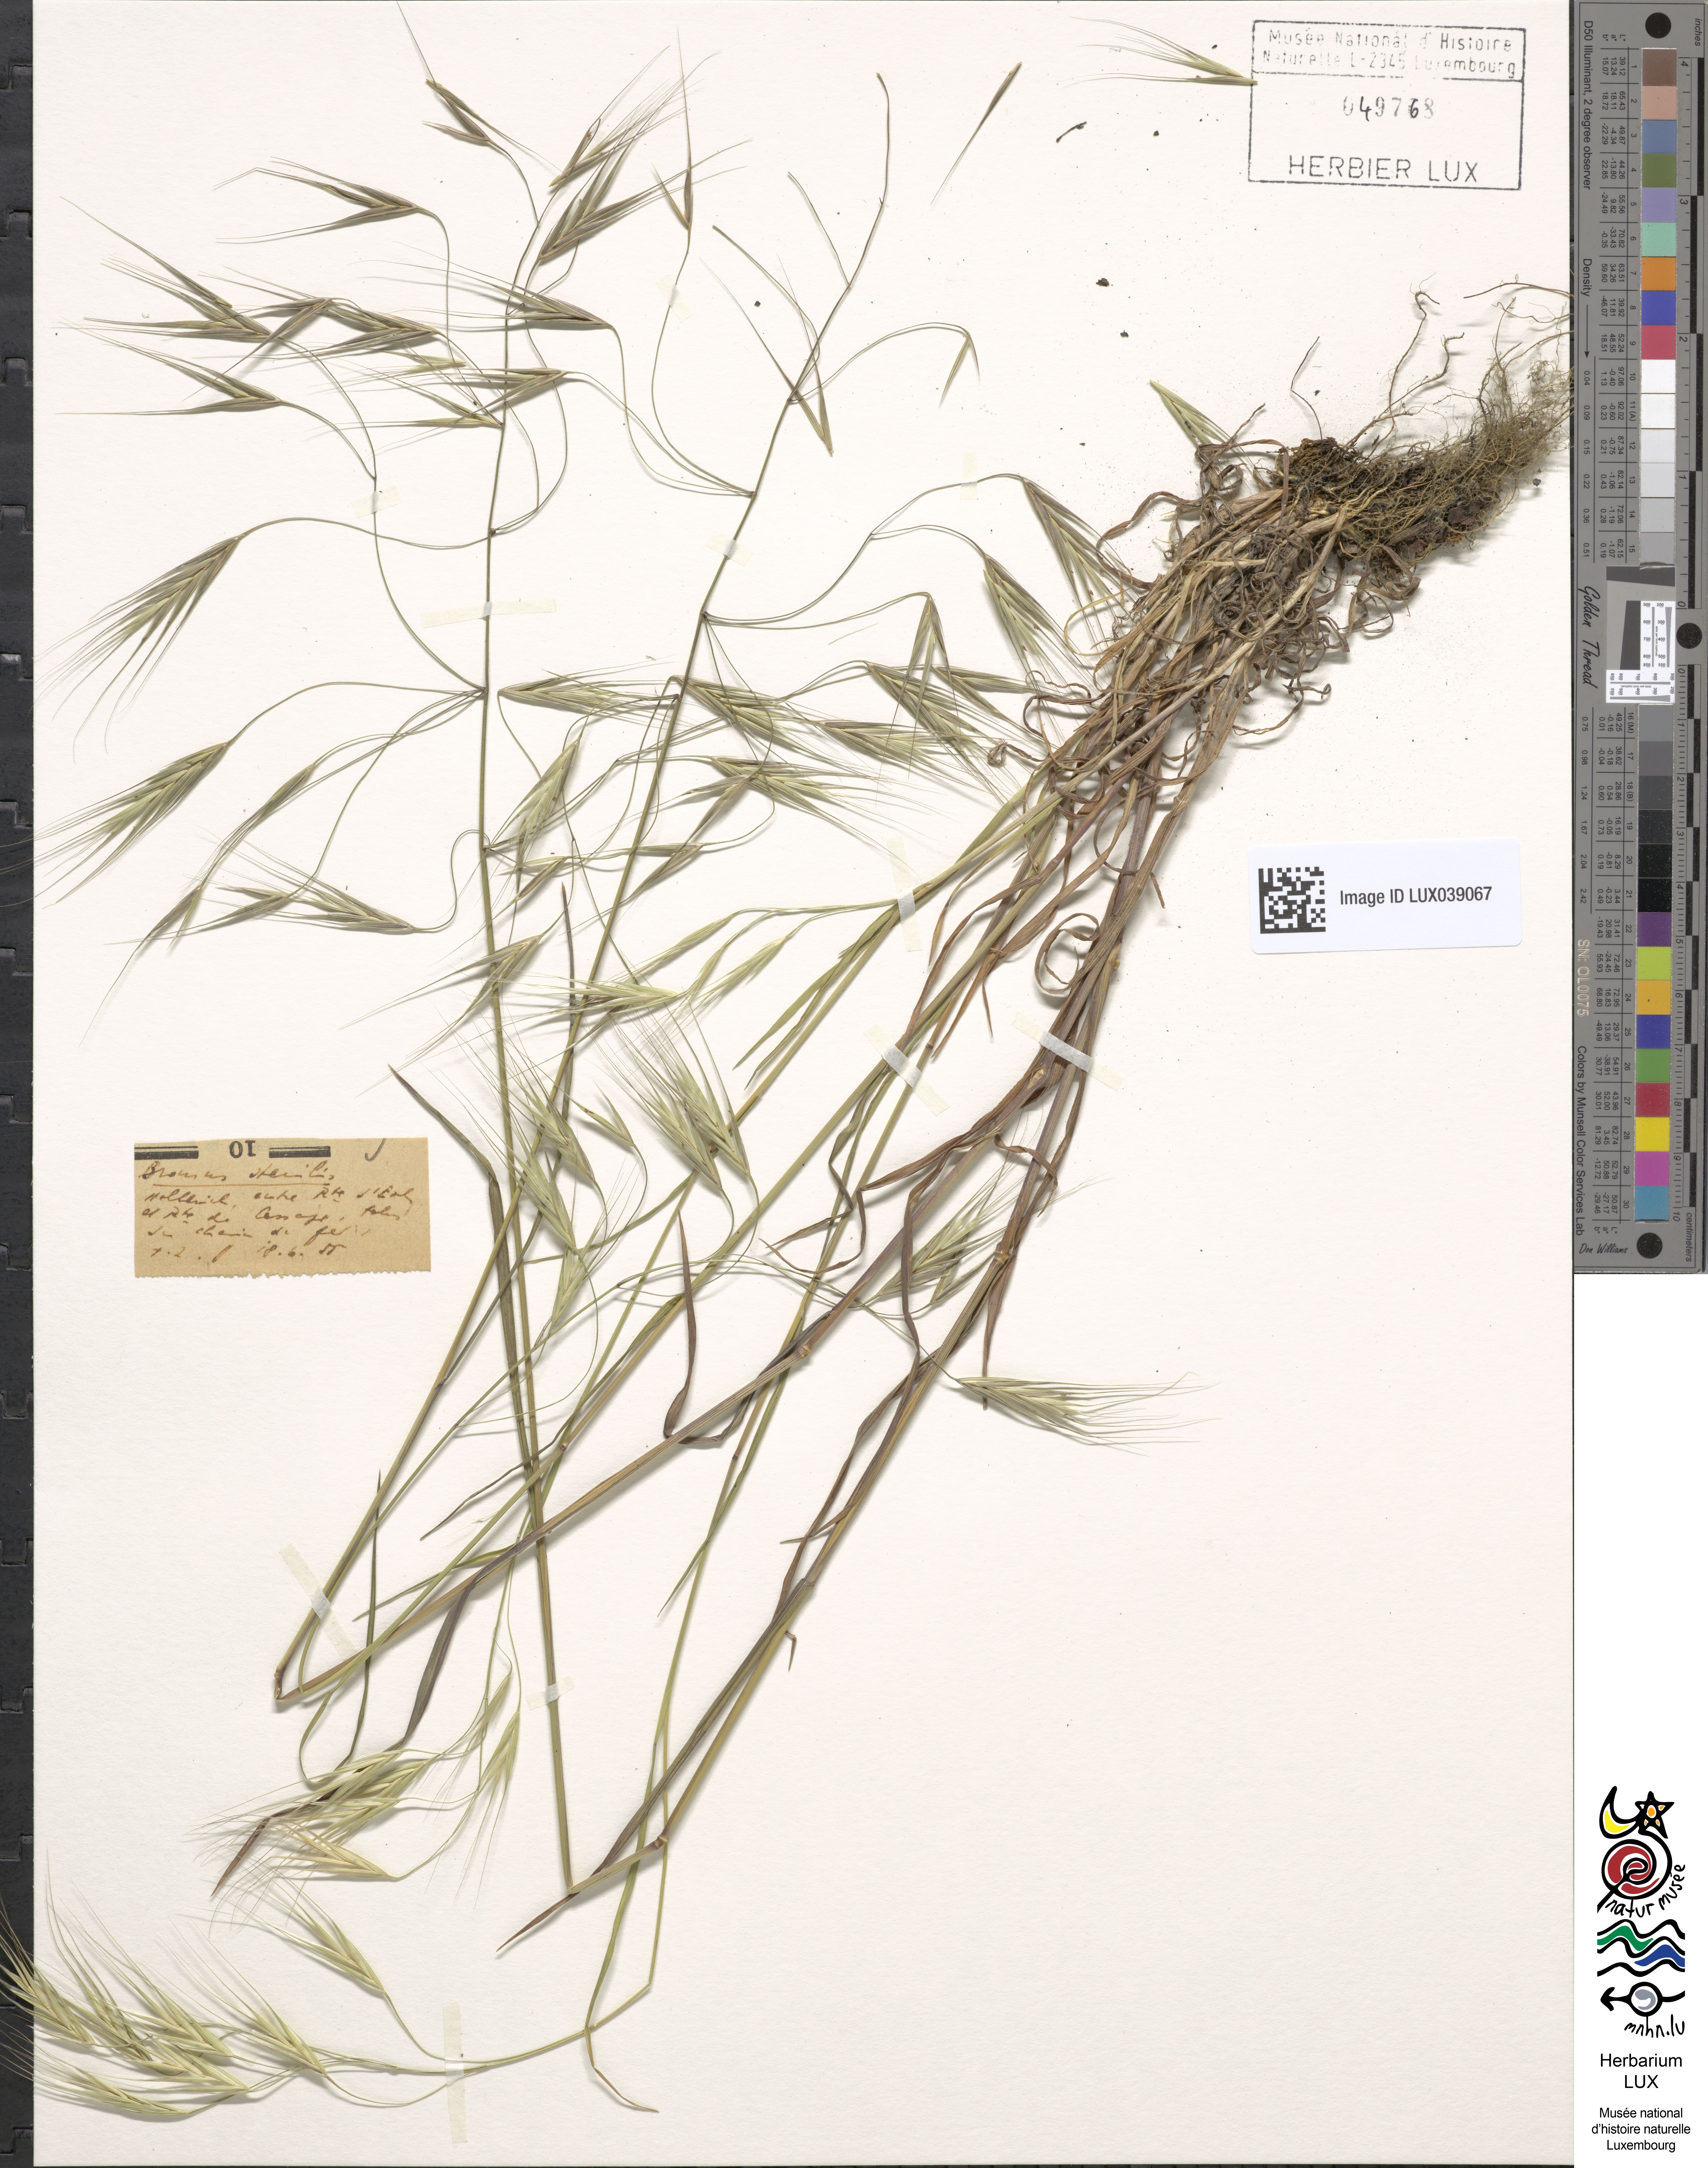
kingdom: Plantae
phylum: Tracheophyta
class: Liliopsida
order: Poales
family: Poaceae
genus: Bromus
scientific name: Bromus sterilis
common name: Poverty brome
